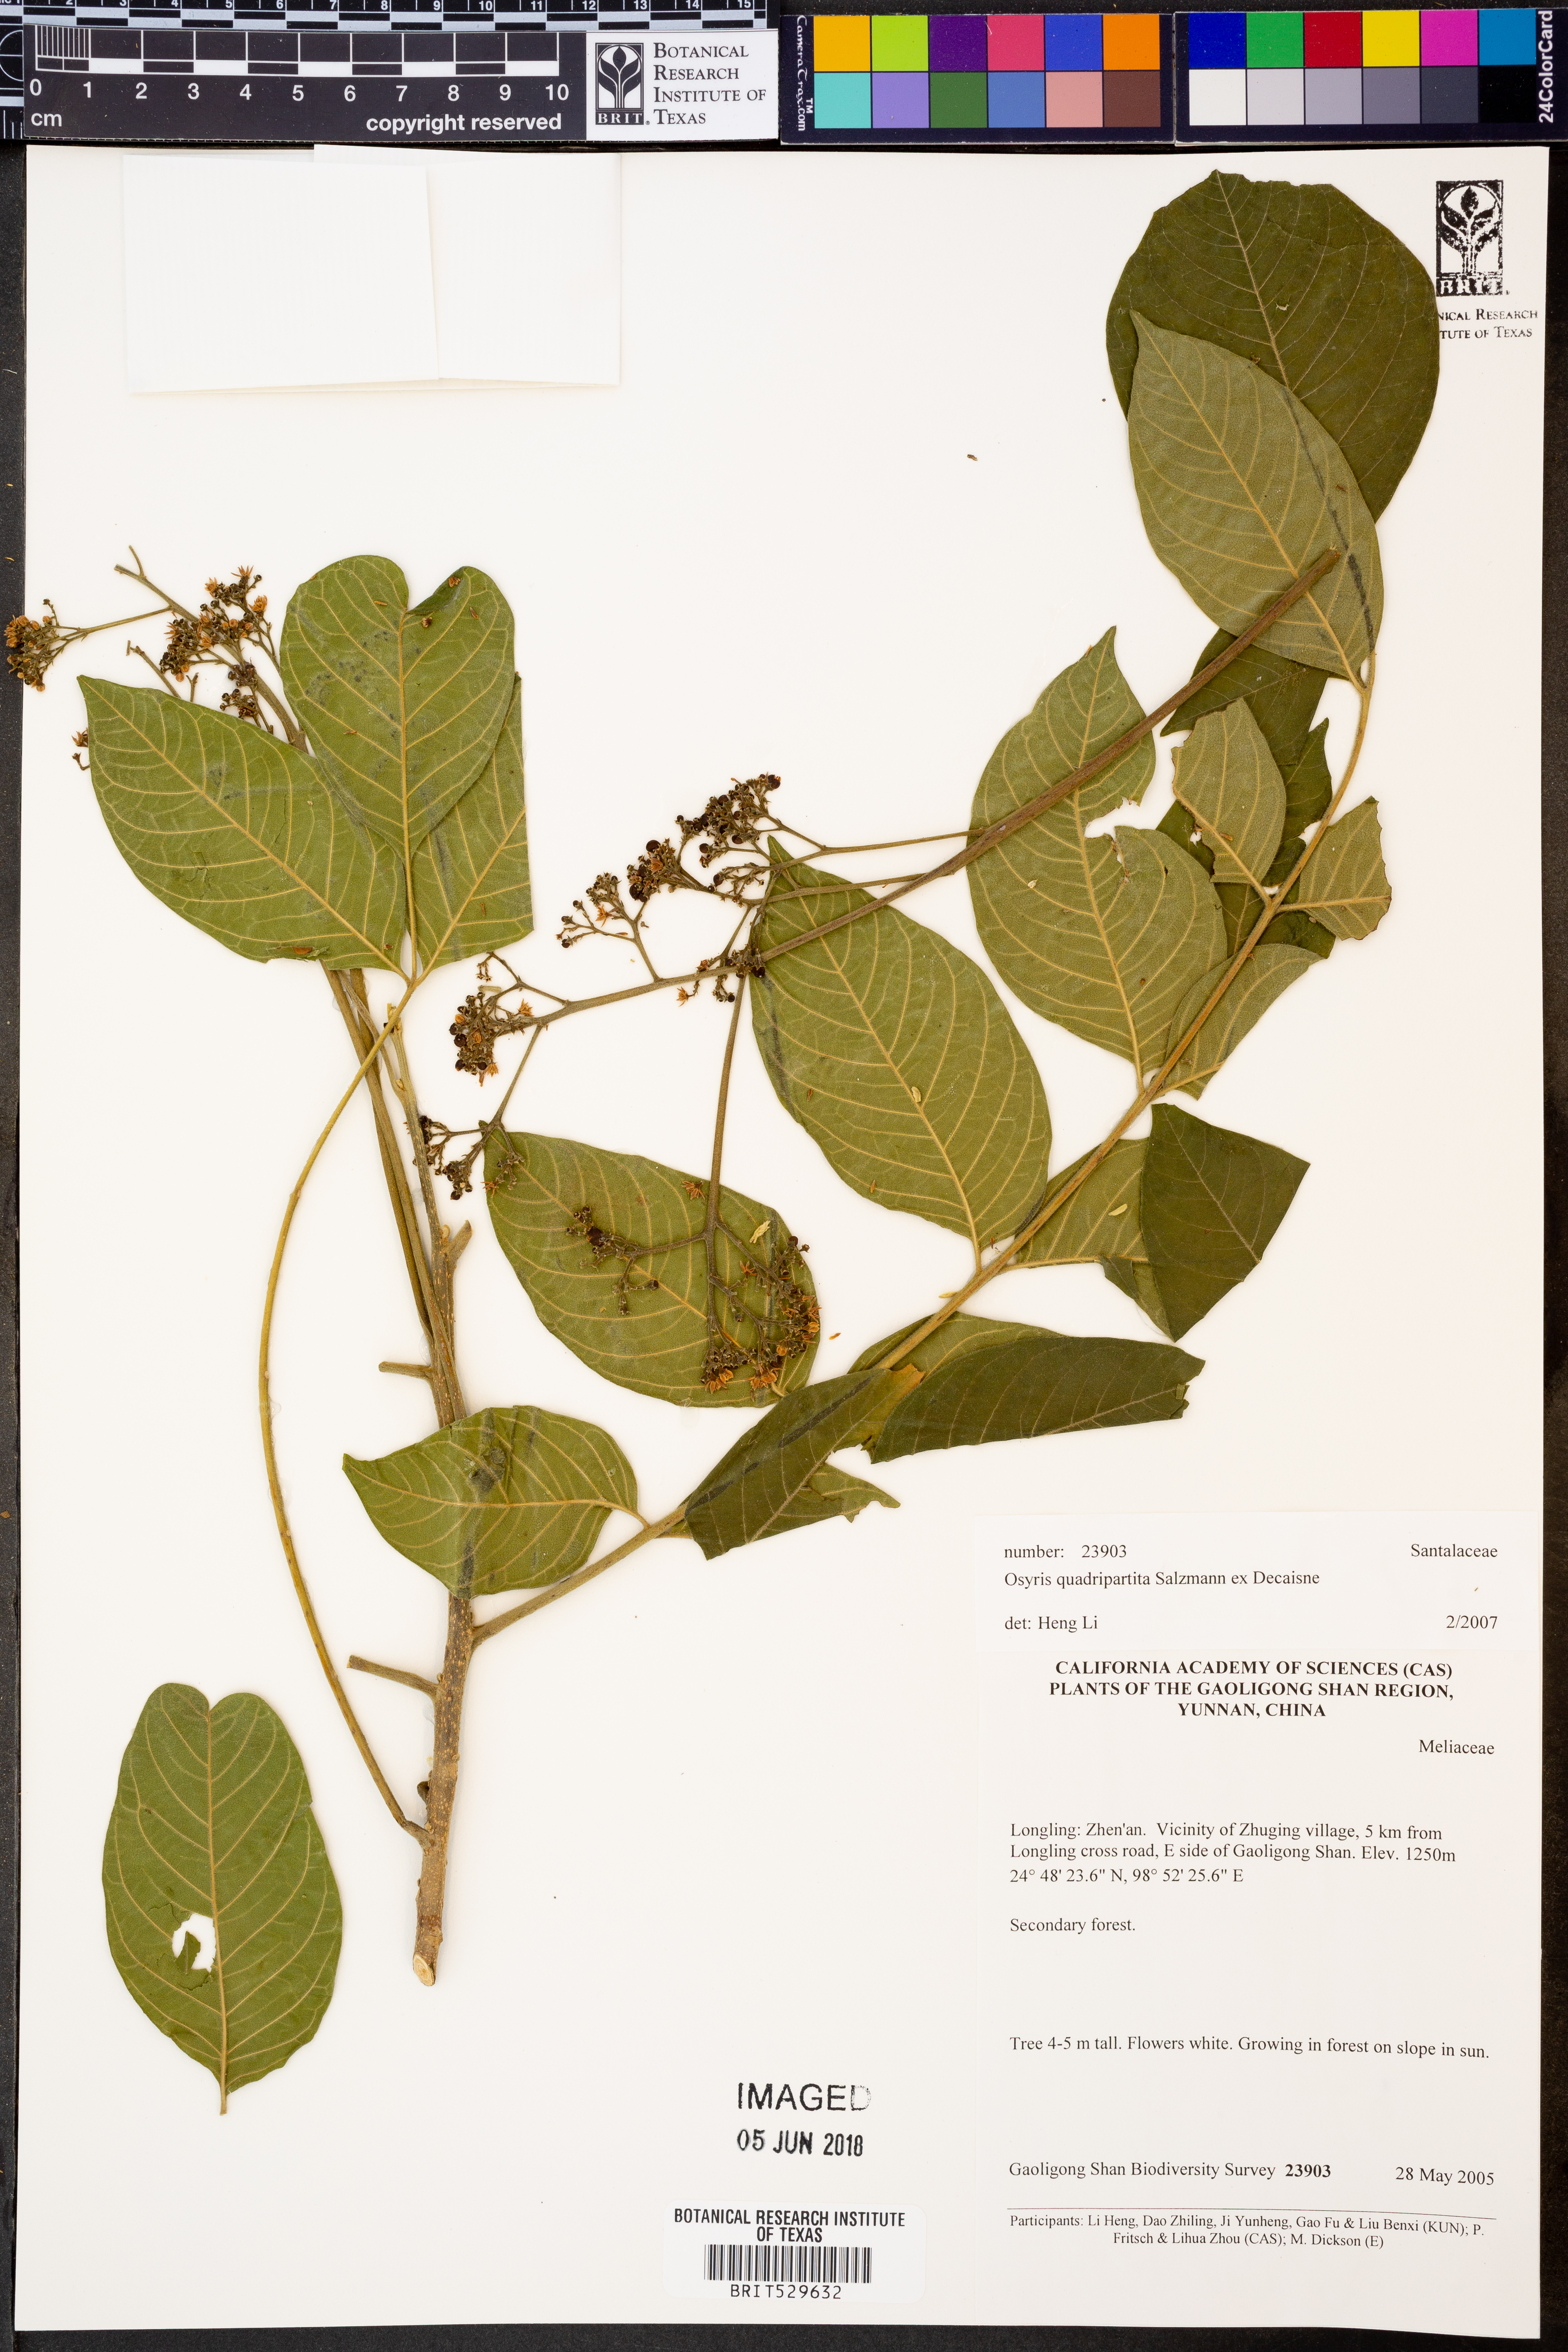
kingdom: Plantae
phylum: Tracheophyta
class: Magnoliopsida
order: Santalales
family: Santalaceae
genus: Osyris
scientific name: Osyris quadripartita
